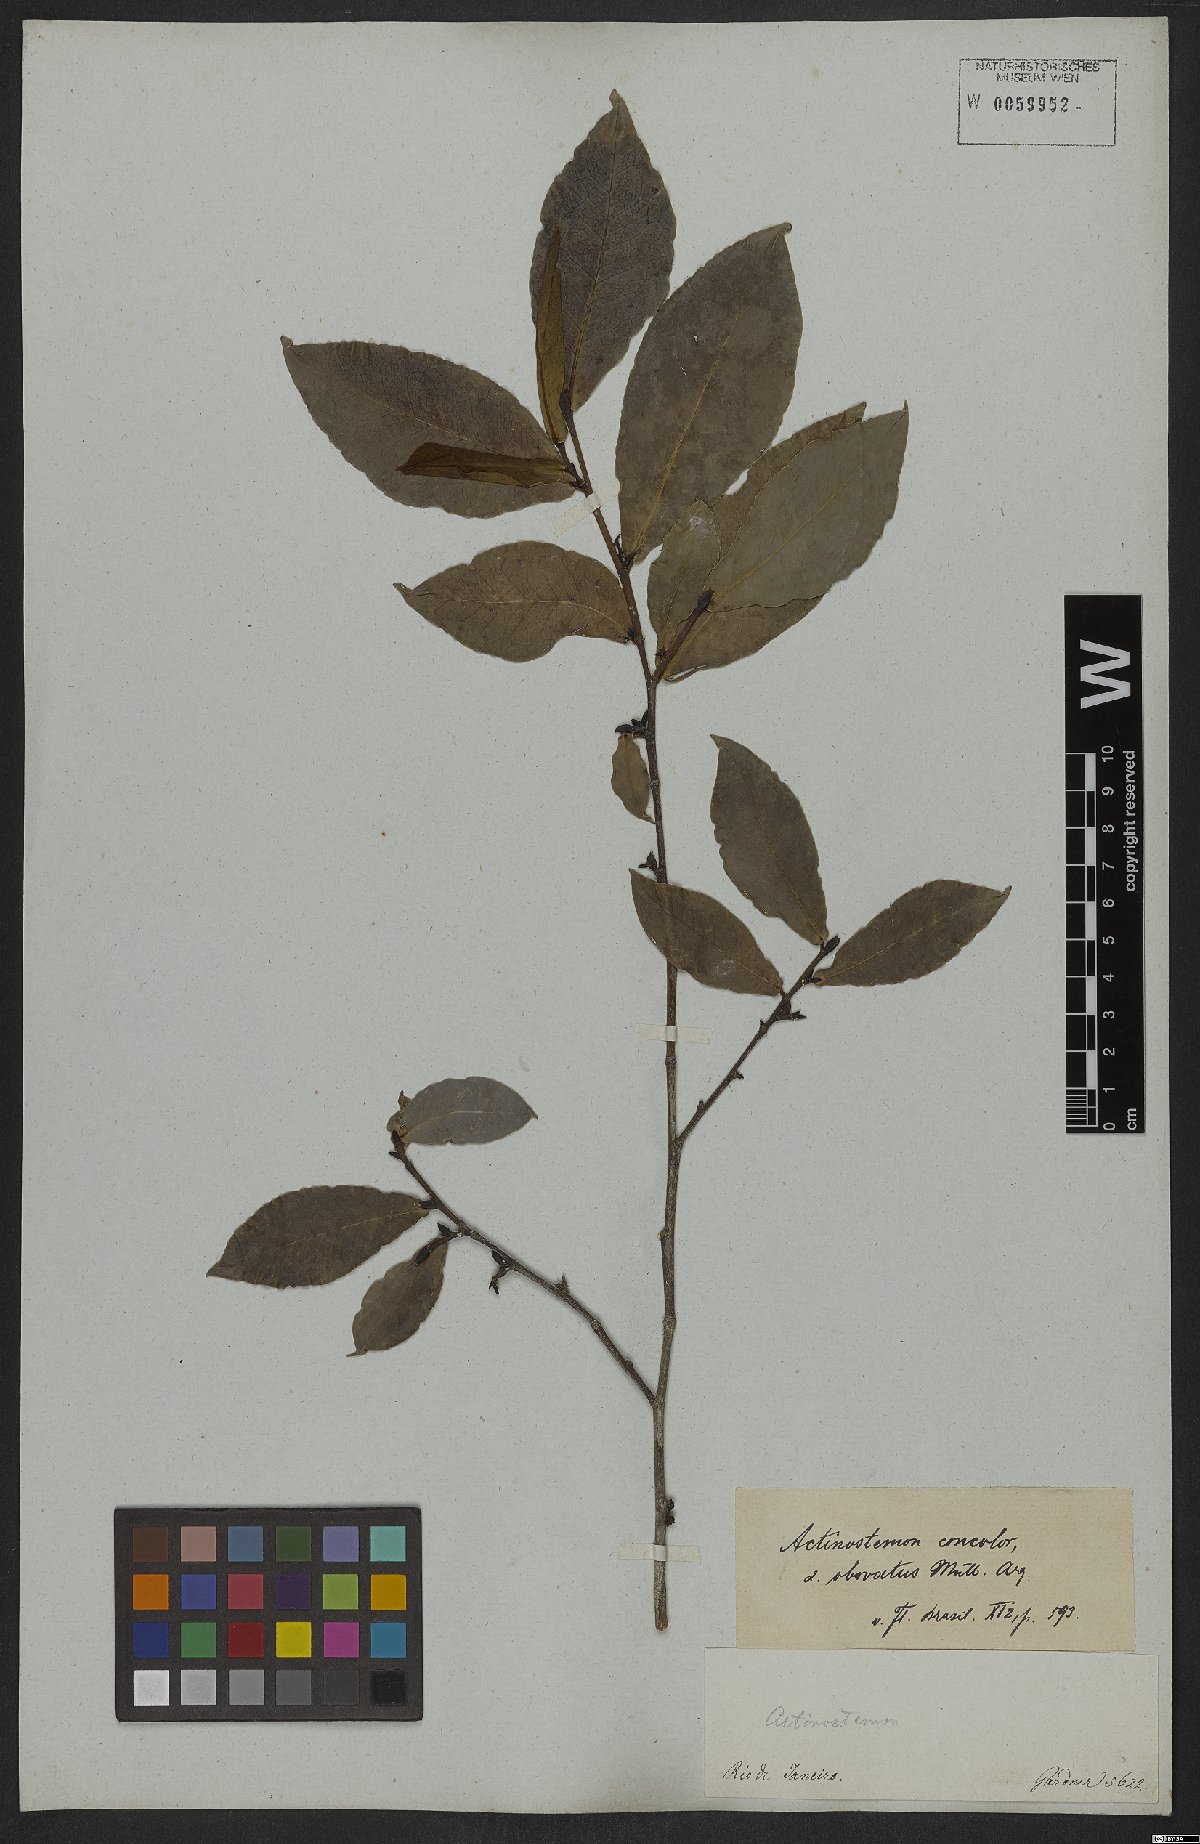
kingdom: Plantae
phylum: Tracheophyta
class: Magnoliopsida
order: Malpighiales
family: Euphorbiaceae
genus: Actinostemon
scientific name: Actinostemon concolor
